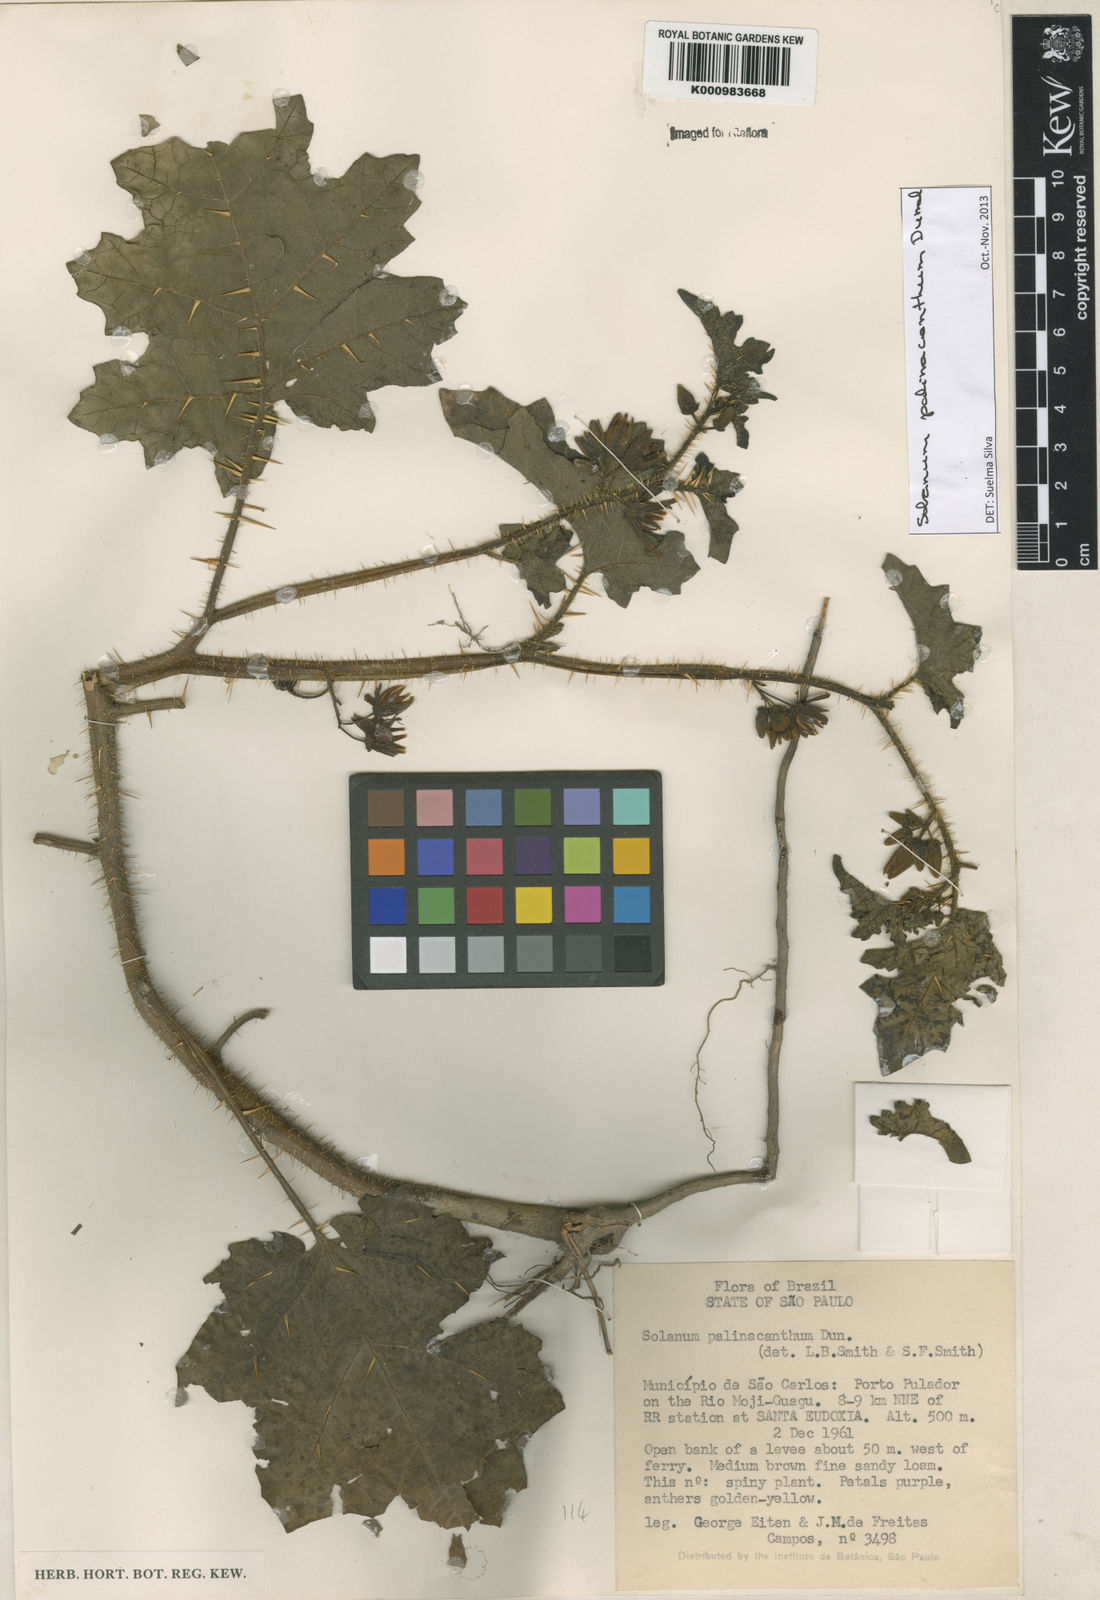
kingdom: Plantae
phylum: Tracheophyta
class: Magnoliopsida
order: Solanales
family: Solanaceae
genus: Solanum
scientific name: Solanum palinacanthum
